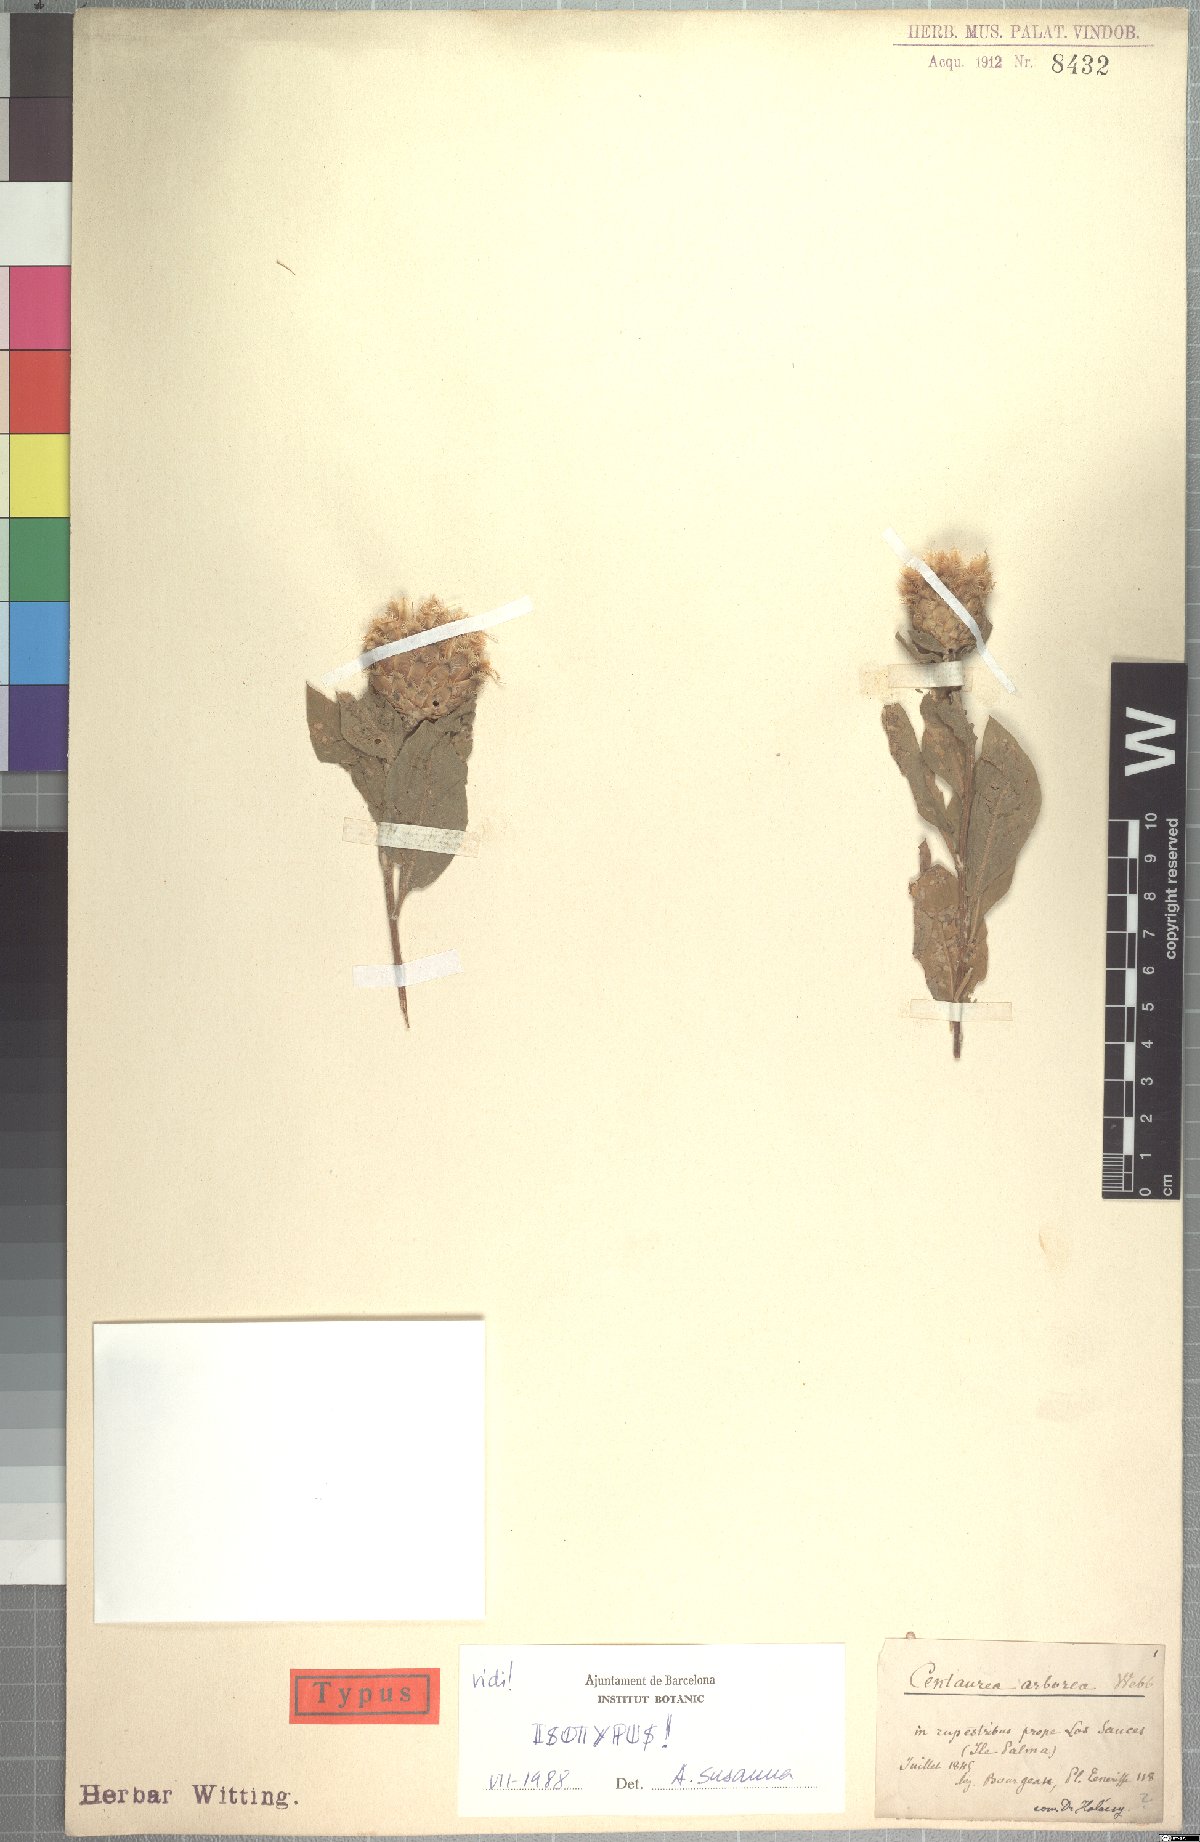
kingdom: Plantae
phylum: Tracheophyta
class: Magnoliopsida
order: Asterales
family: Asteraceae
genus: Cheirolophus
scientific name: Cheirolophus arboreus
